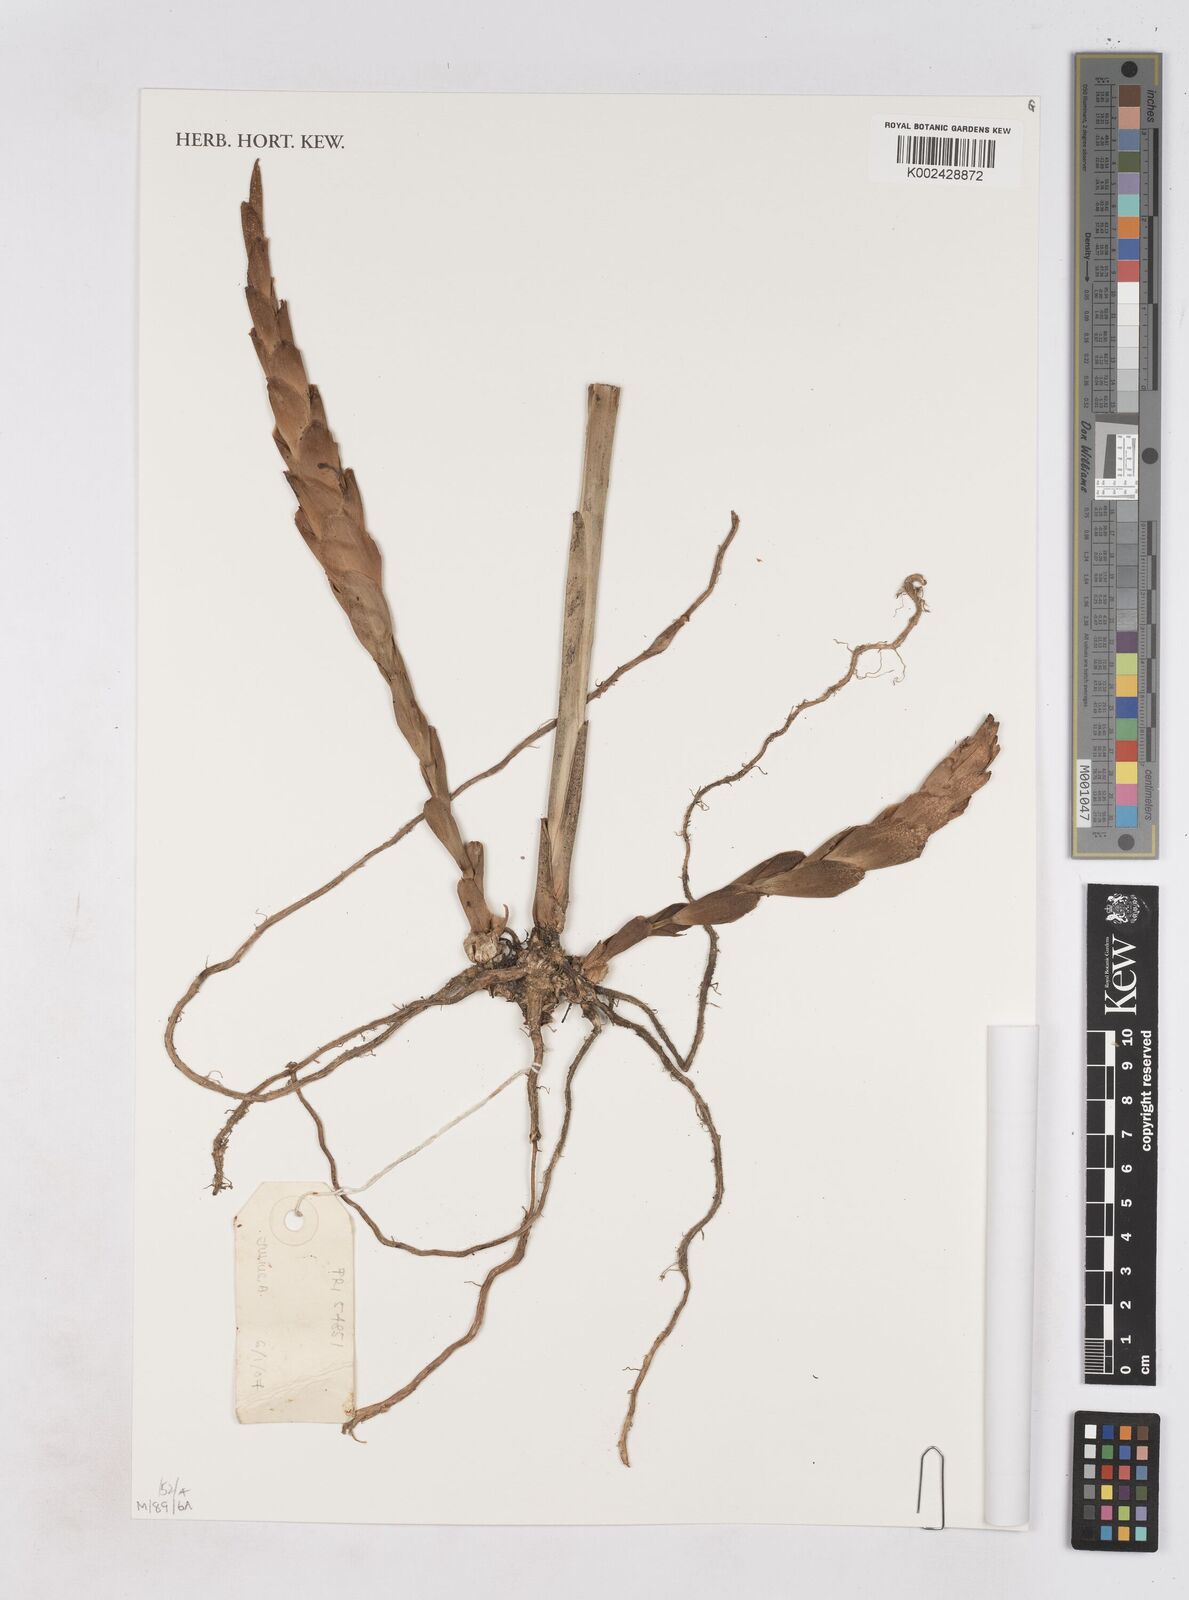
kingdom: Plantae
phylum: Tracheophyta
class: Liliopsida
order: Zingiberales
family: Zingiberaceae
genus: Zingiber
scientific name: Zingiber
